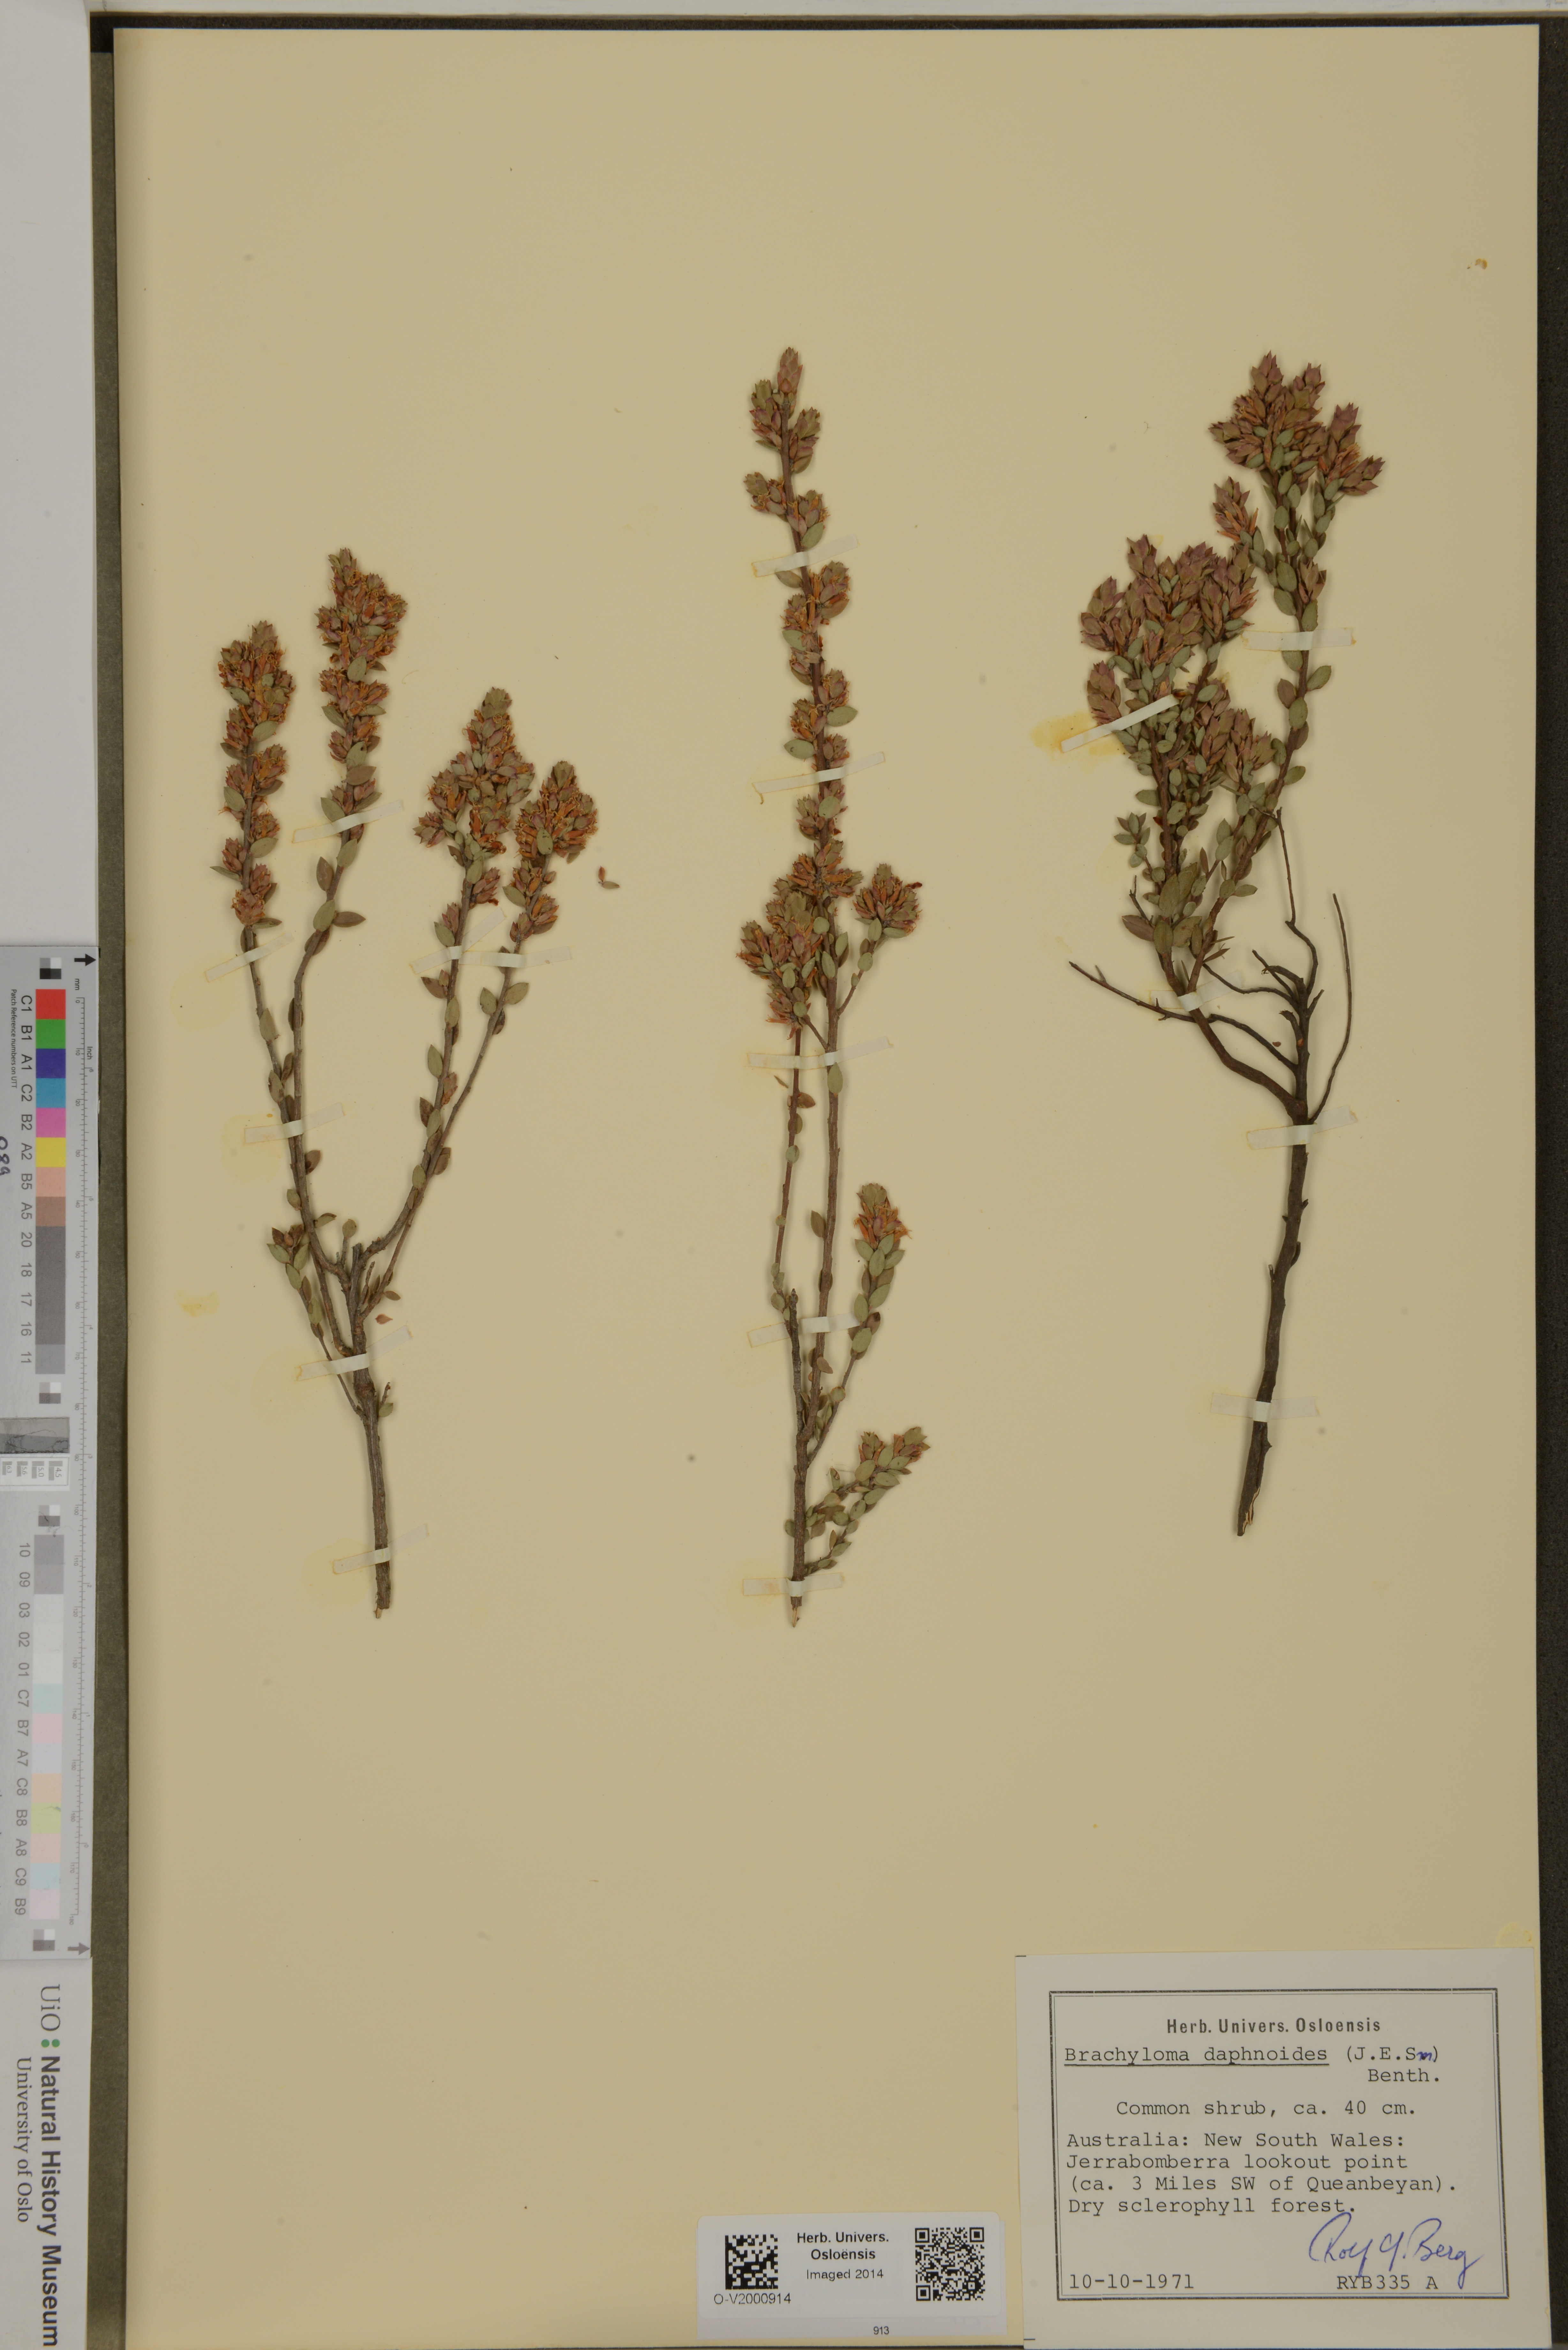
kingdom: Plantae
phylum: Tracheophyta
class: Magnoliopsida
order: Ericales
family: Ericaceae
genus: Brachyloma
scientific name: Brachyloma daphnoides
